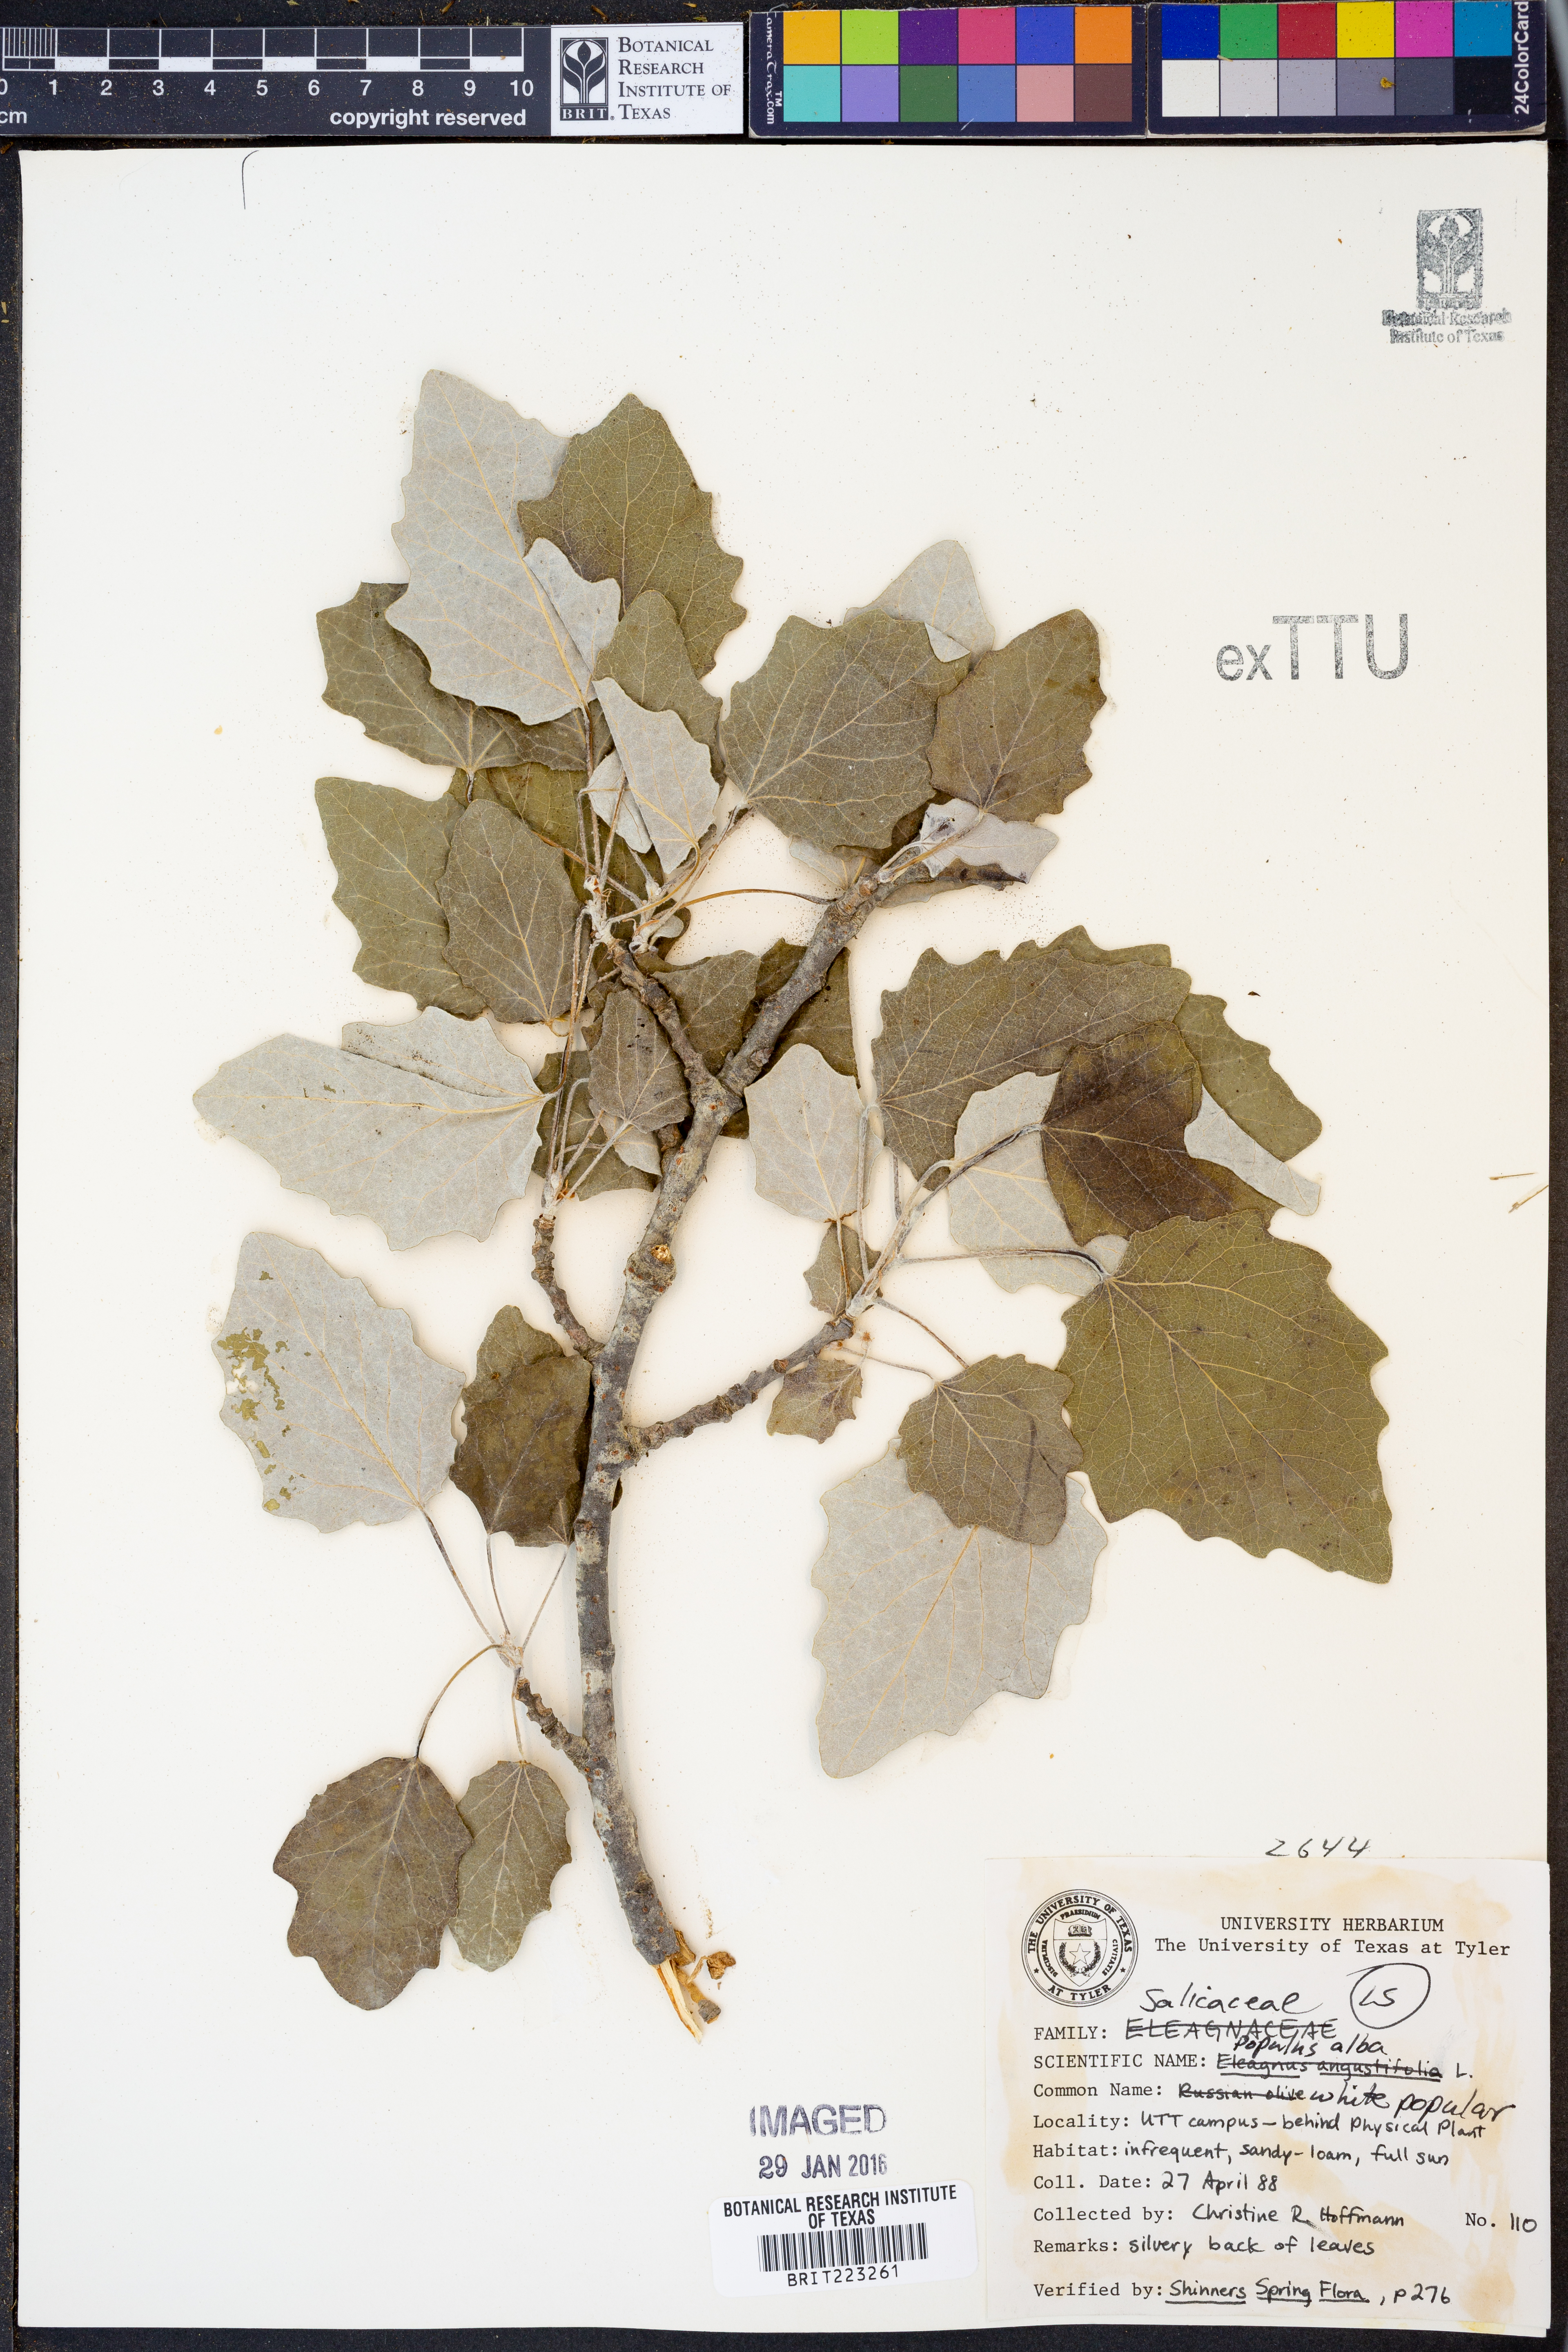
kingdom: Plantae
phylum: Tracheophyta
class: Magnoliopsida
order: Malpighiales
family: Salicaceae
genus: Populus
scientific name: Populus alba
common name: White poplar
